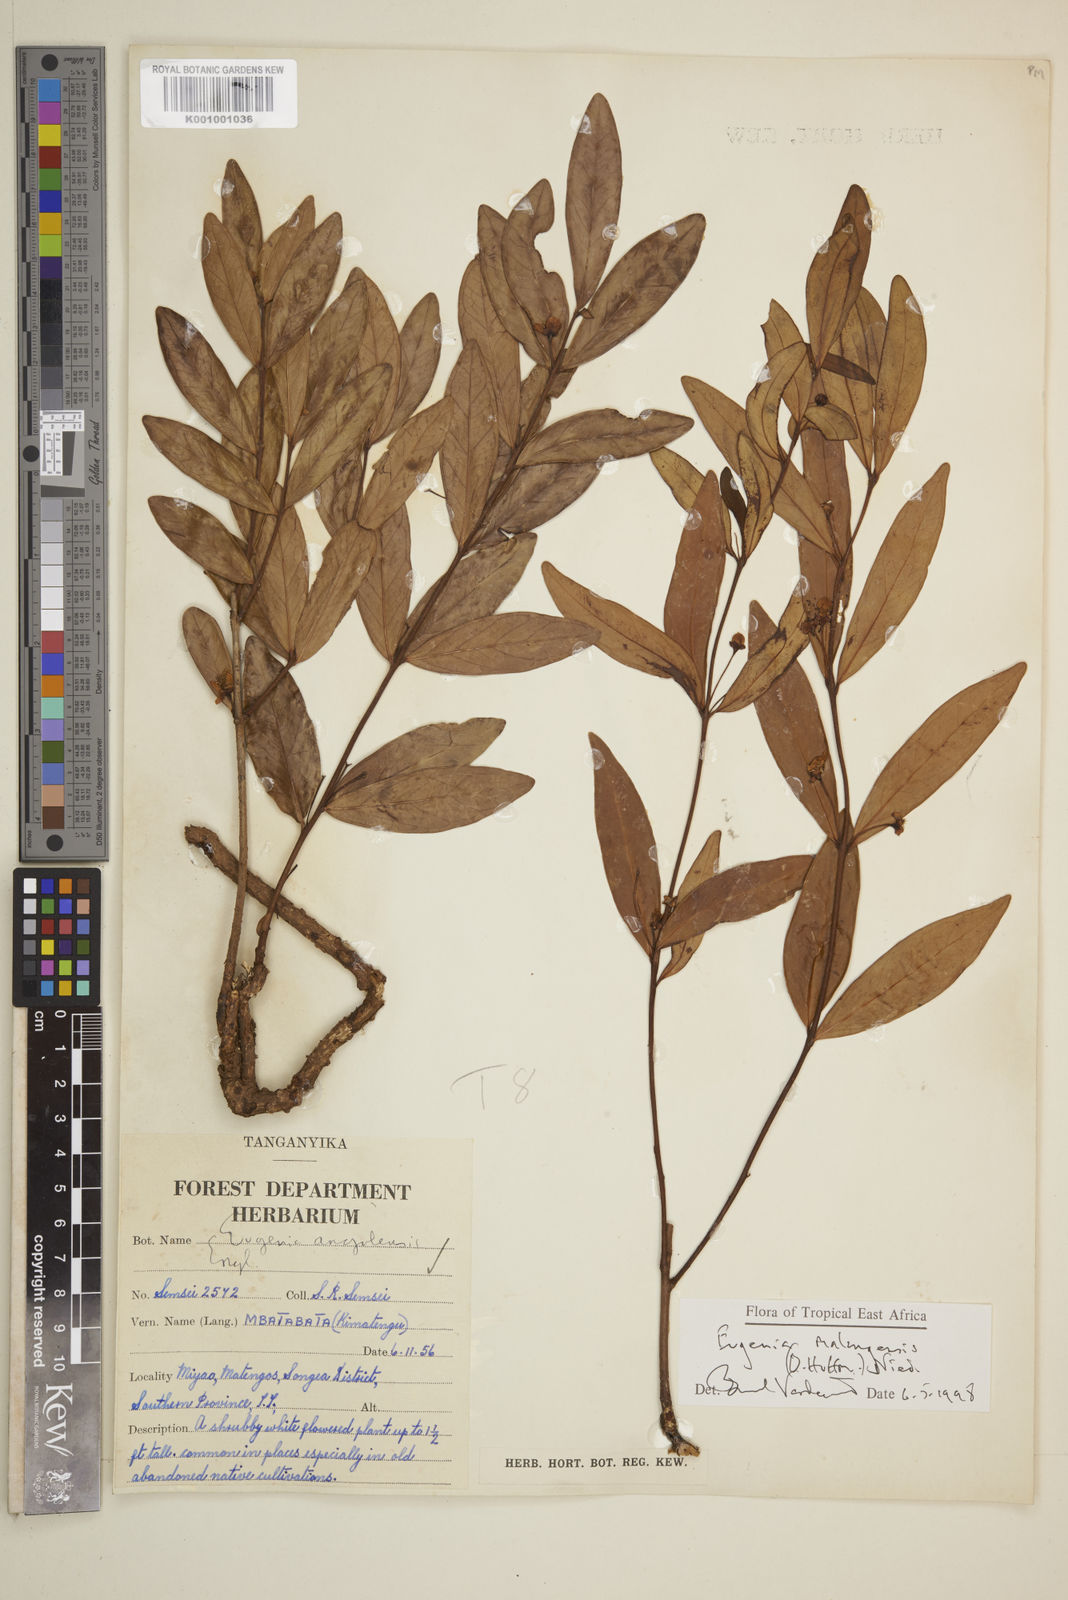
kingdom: Plantae
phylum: Tracheophyta
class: Magnoliopsida
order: Myrtales
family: Myrtaceae
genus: Eugenia
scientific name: Eugenia malangensis
